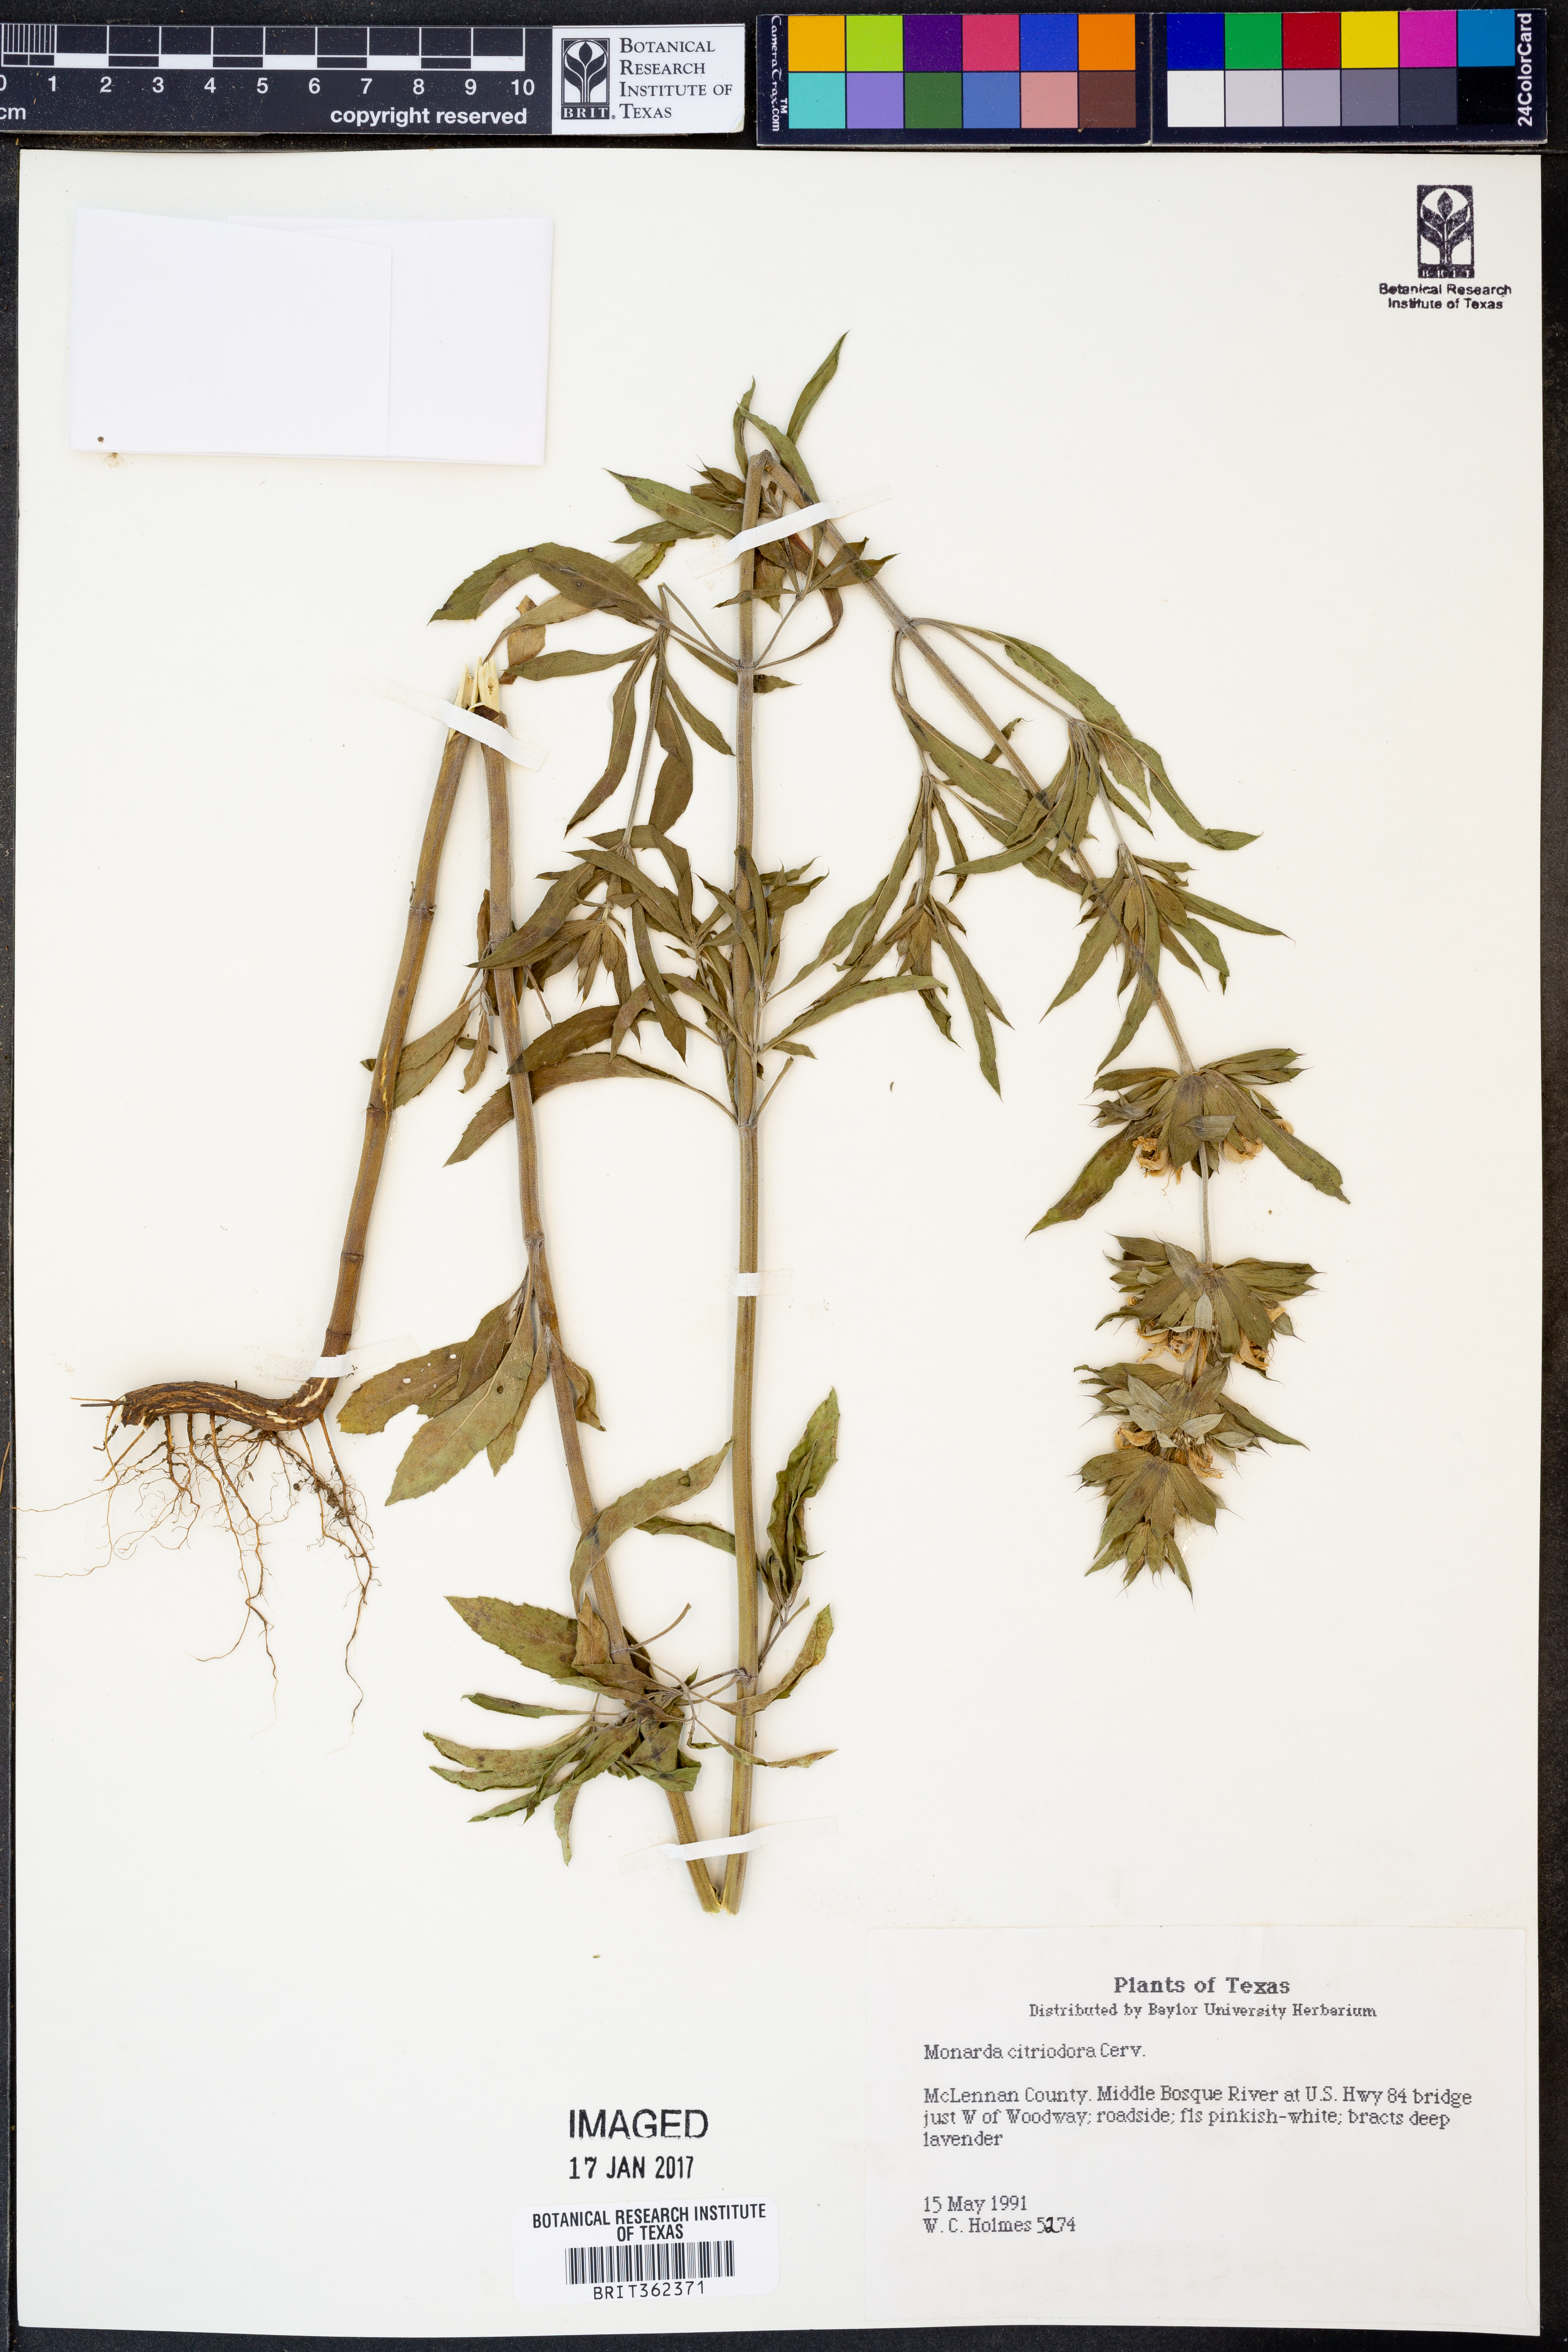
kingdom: Plantae
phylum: Tracheophyta
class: Magnoliopsida
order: Lamiales
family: Lamiaceae
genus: Monarda
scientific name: Monarda citriodora
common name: Lemon beebalm
